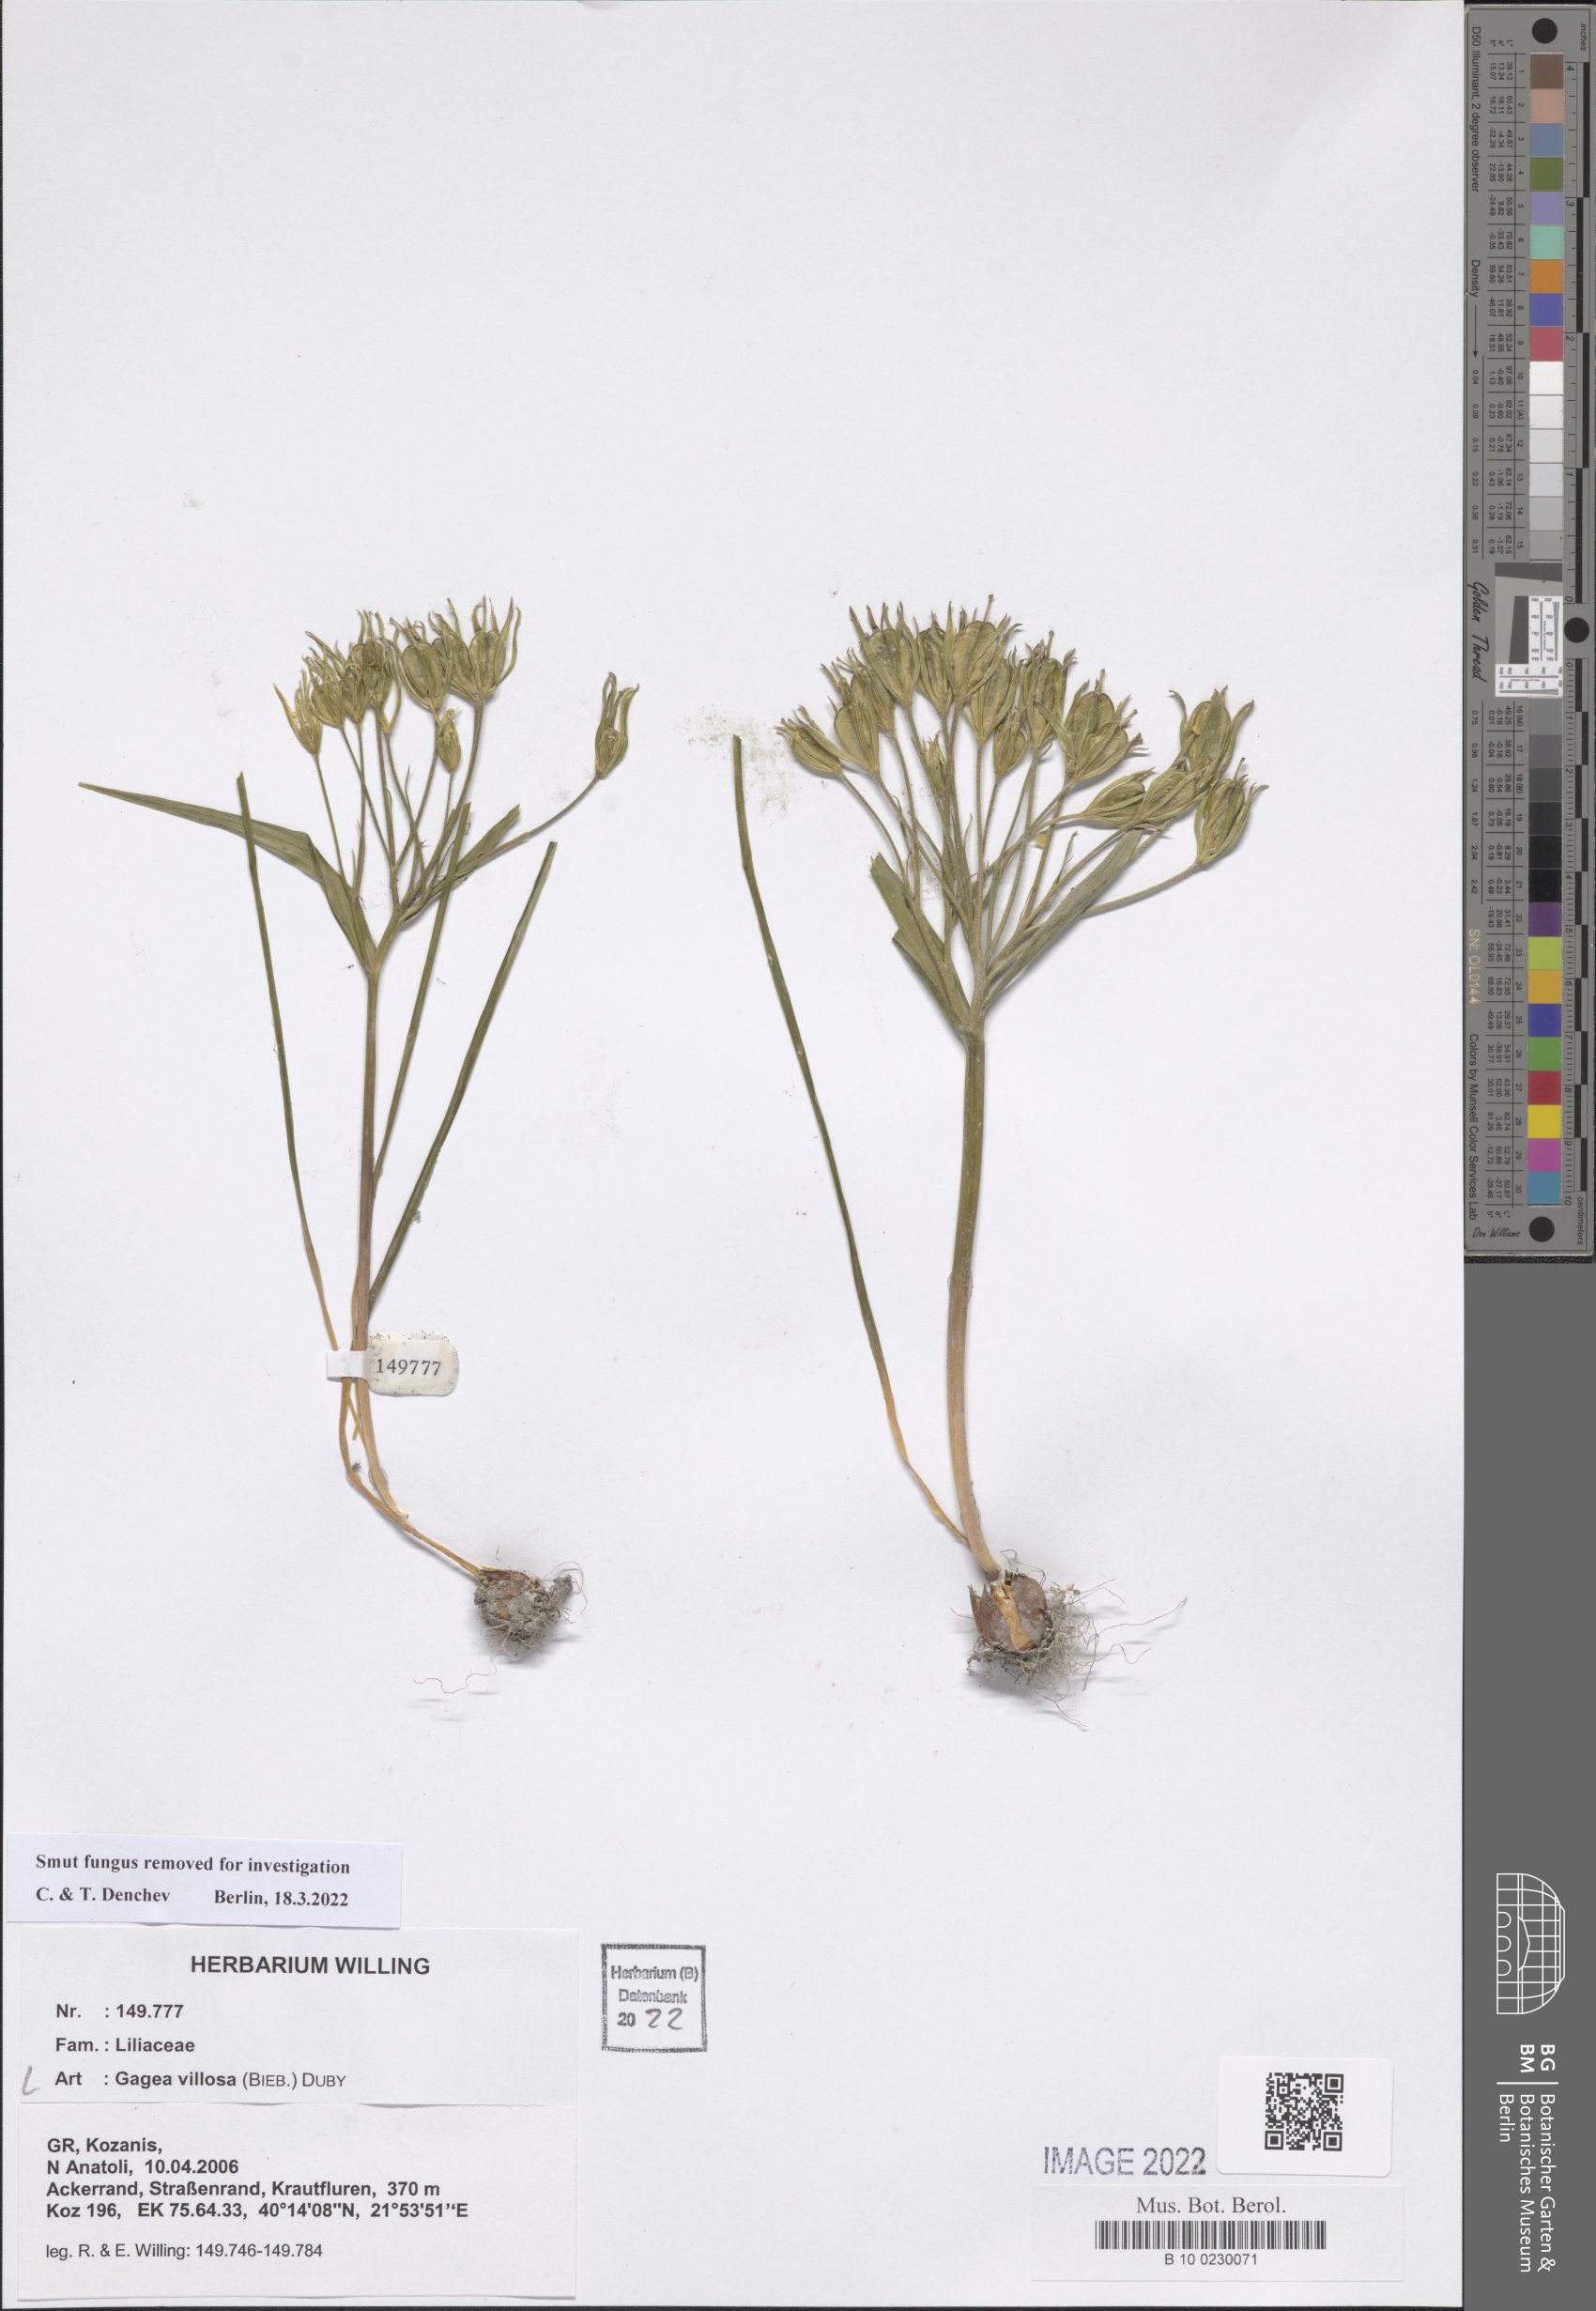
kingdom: Plantae
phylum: Tracheophyta
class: Liliopsida
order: Liliales
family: Liliaceae
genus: Gagea
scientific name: Gagea villosa
